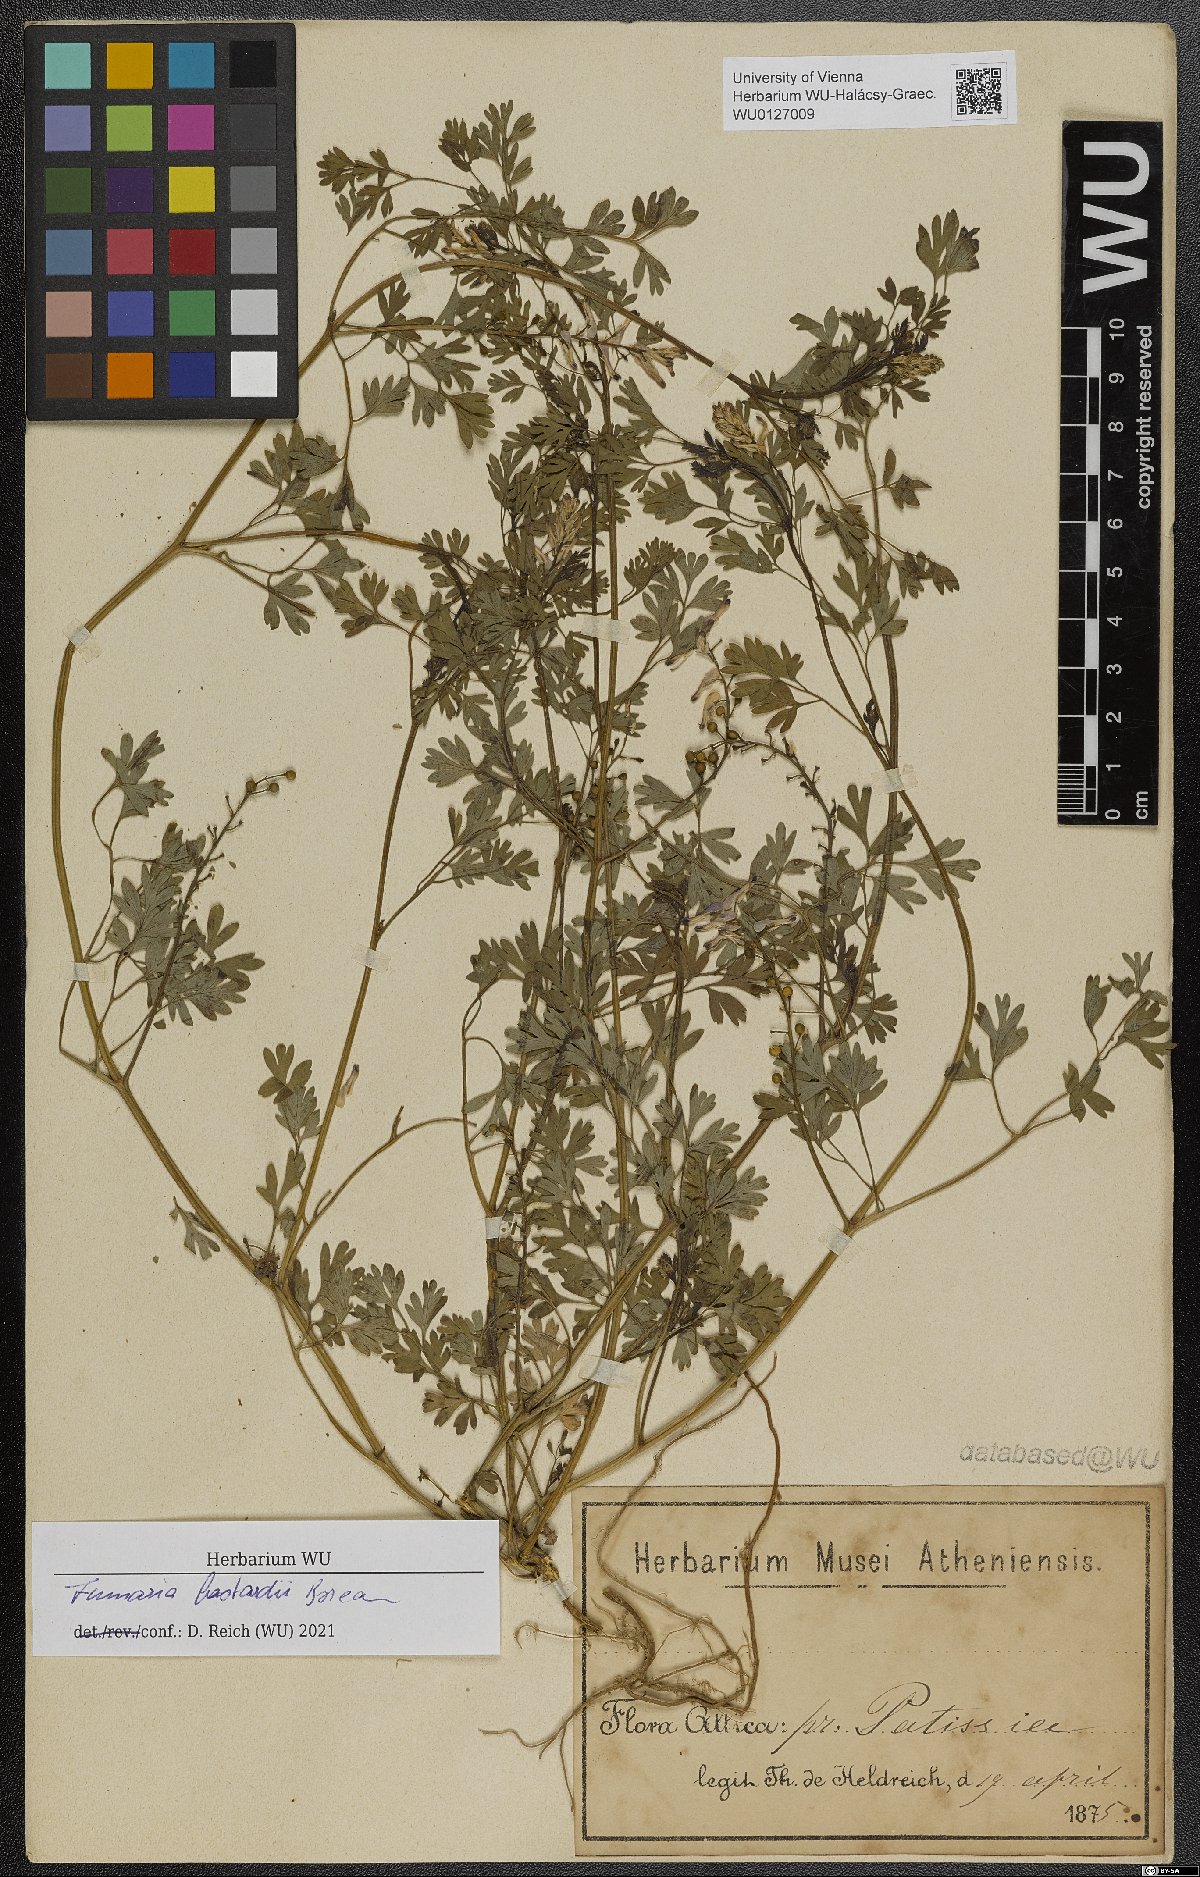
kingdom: Plantae
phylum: Tracheophyta
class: Magnoliopsida
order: Ranunculales
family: Papaveraceae
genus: Fumaria
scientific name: Fumaria bastardii
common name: Tall ramping-fumitory
